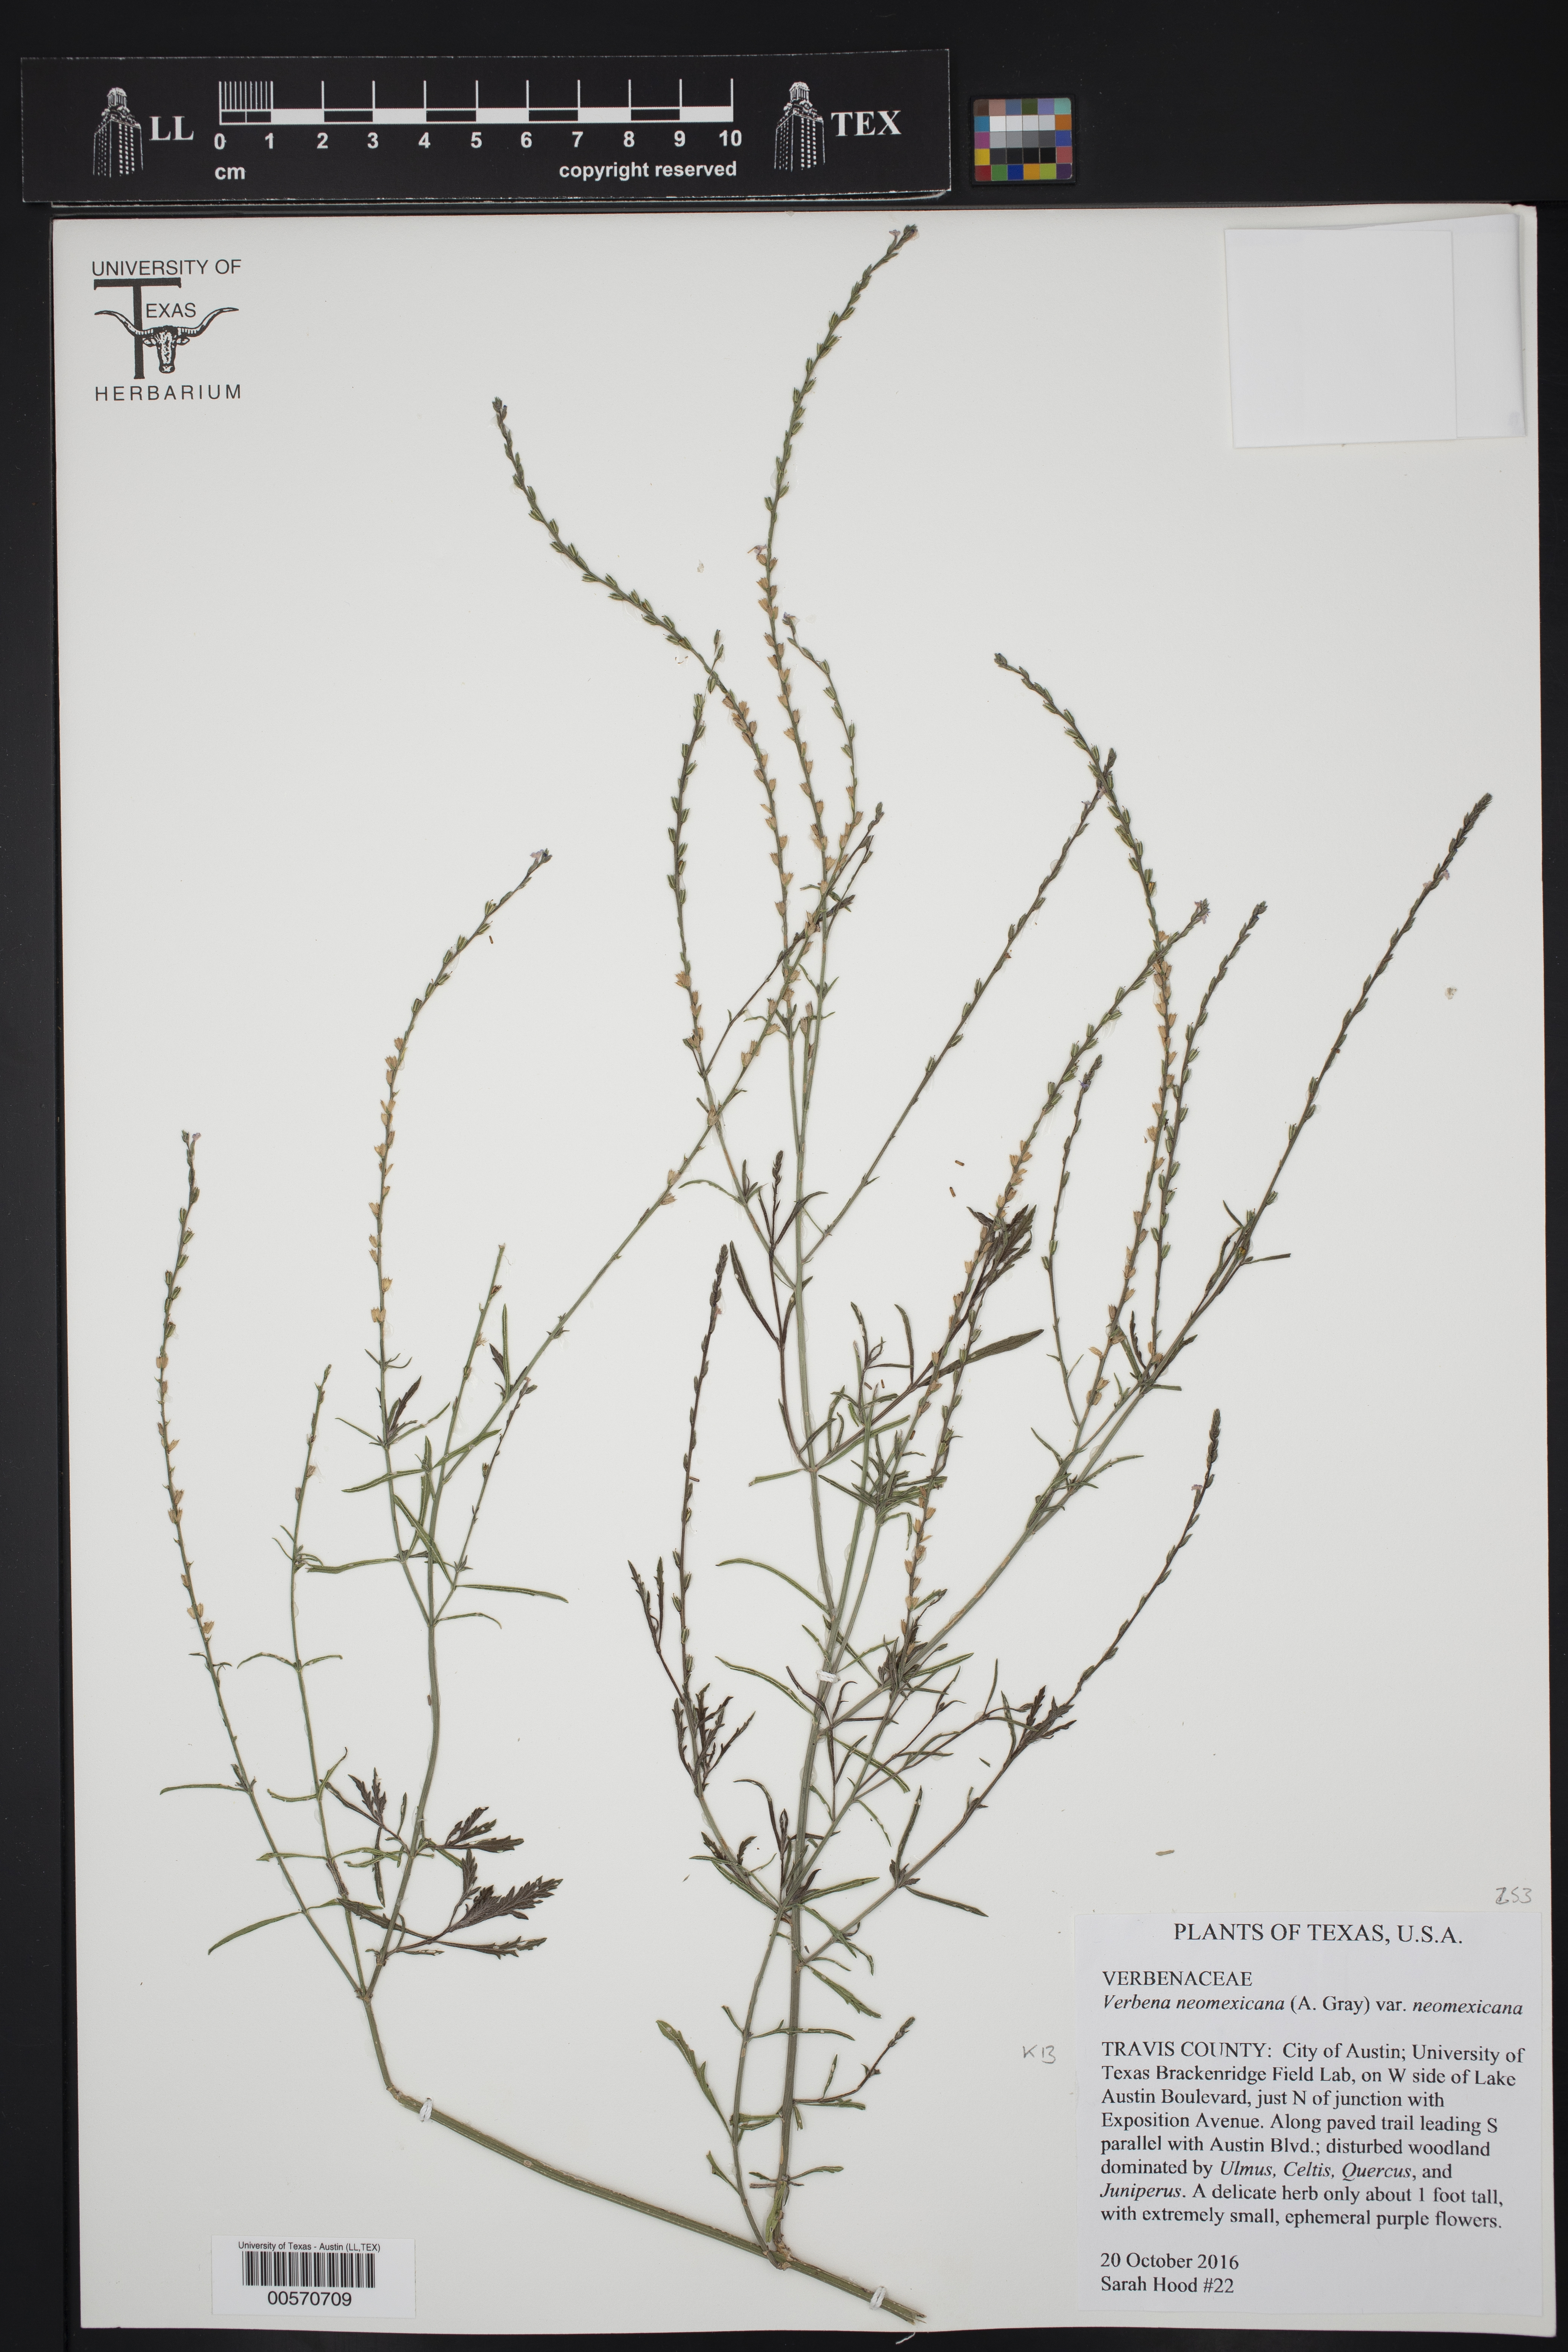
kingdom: Plantae
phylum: Tracheophyta
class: Magnoliopsida
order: Lamiales
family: Verbenaceae
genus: Verbena
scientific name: Verbena neomexicana
